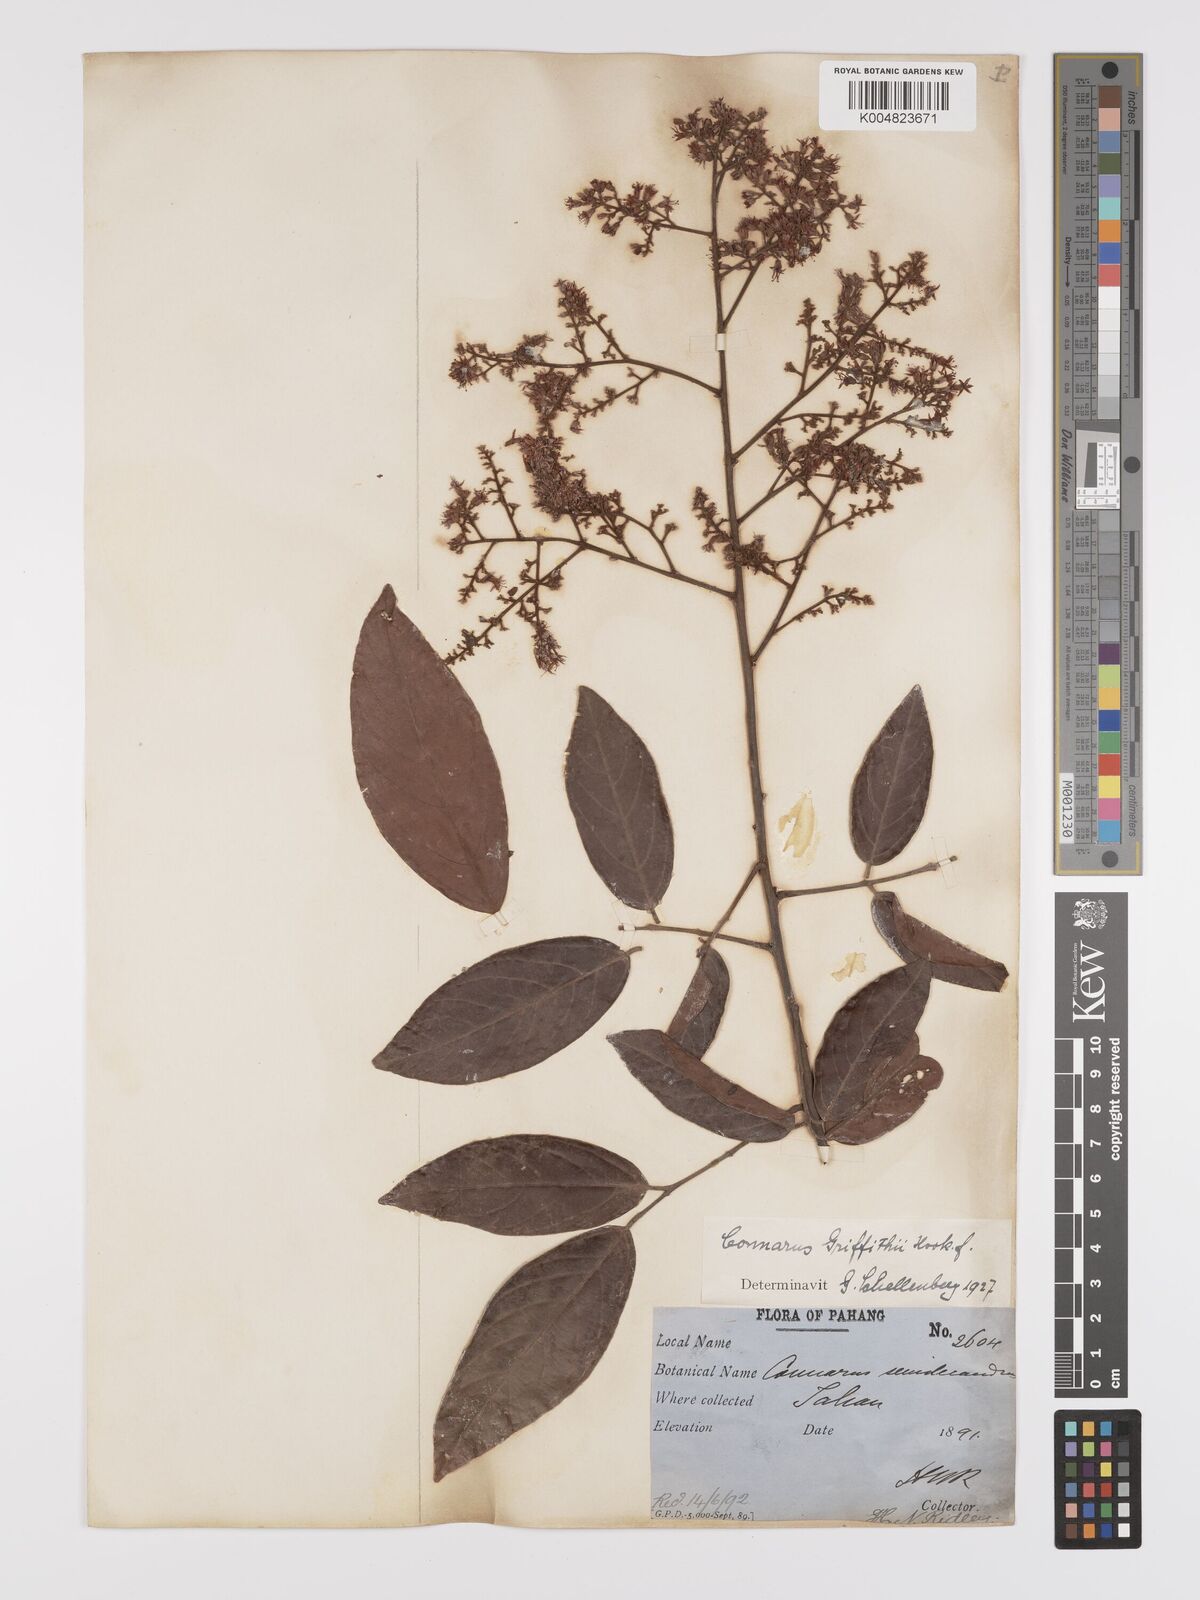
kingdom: Plantae
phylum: Tracheophyta
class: Magnoliopsida
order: Oxalidales
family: Connaraceae
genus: Connarus
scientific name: Connarus semidecandrus
